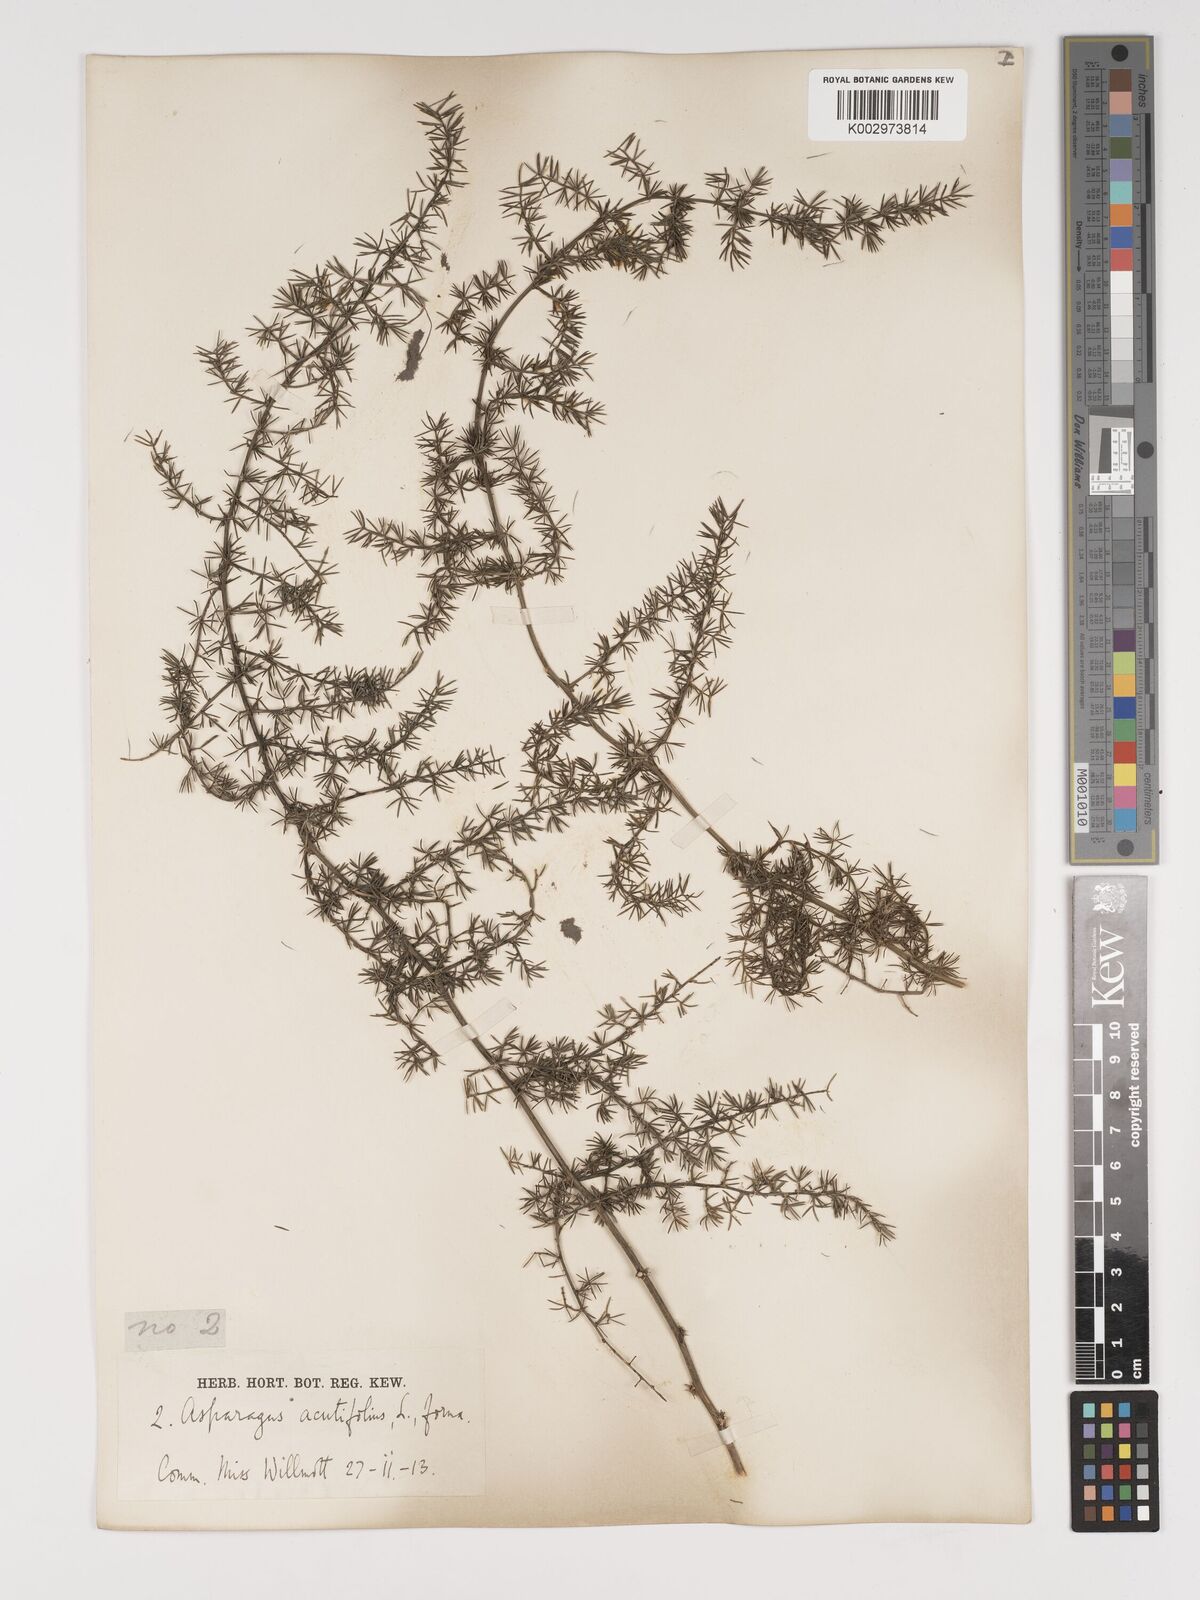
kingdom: Plantae
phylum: Tracheophyta
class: Liliopsida
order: Asparagales
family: Asparagaceae
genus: Asparagus
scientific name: Asparagus acutifolius
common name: Wild asparagus
